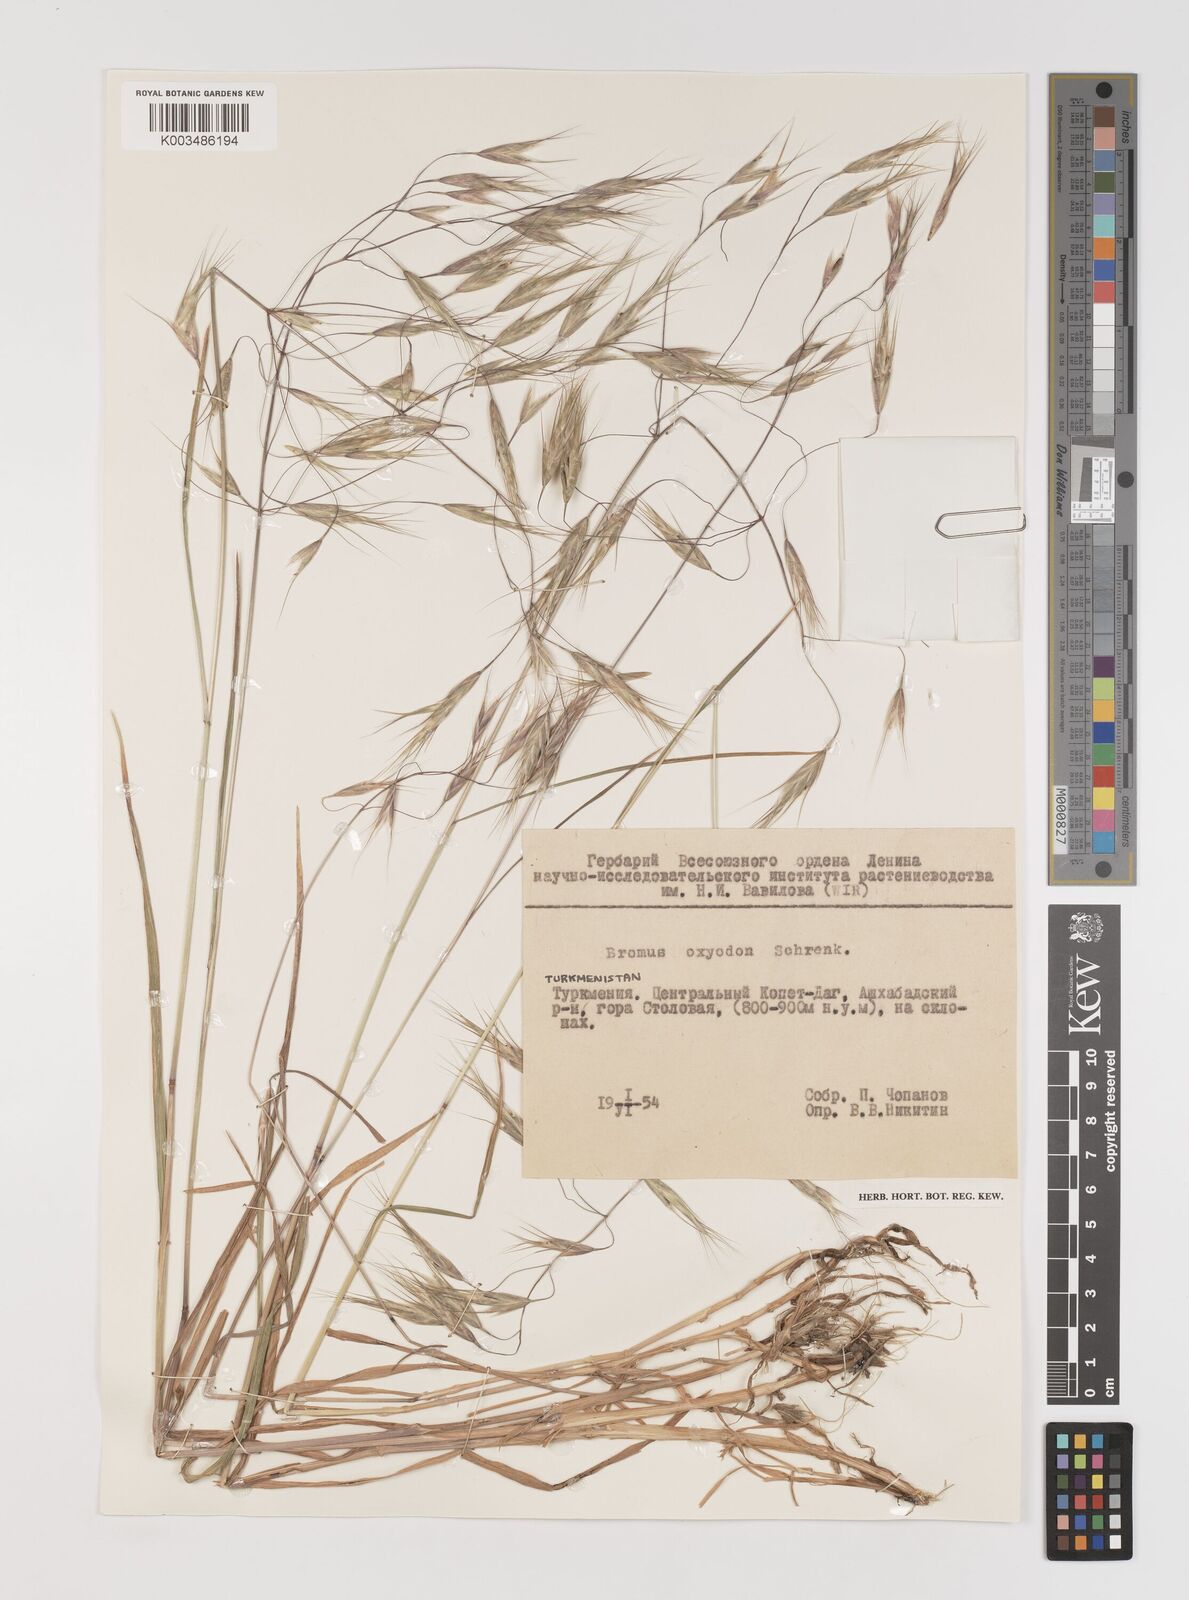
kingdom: Plantae
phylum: Tracheophyta
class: Liliopsida
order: Poales
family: Poaceae
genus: Bromus
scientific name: Bromus oxyodon
